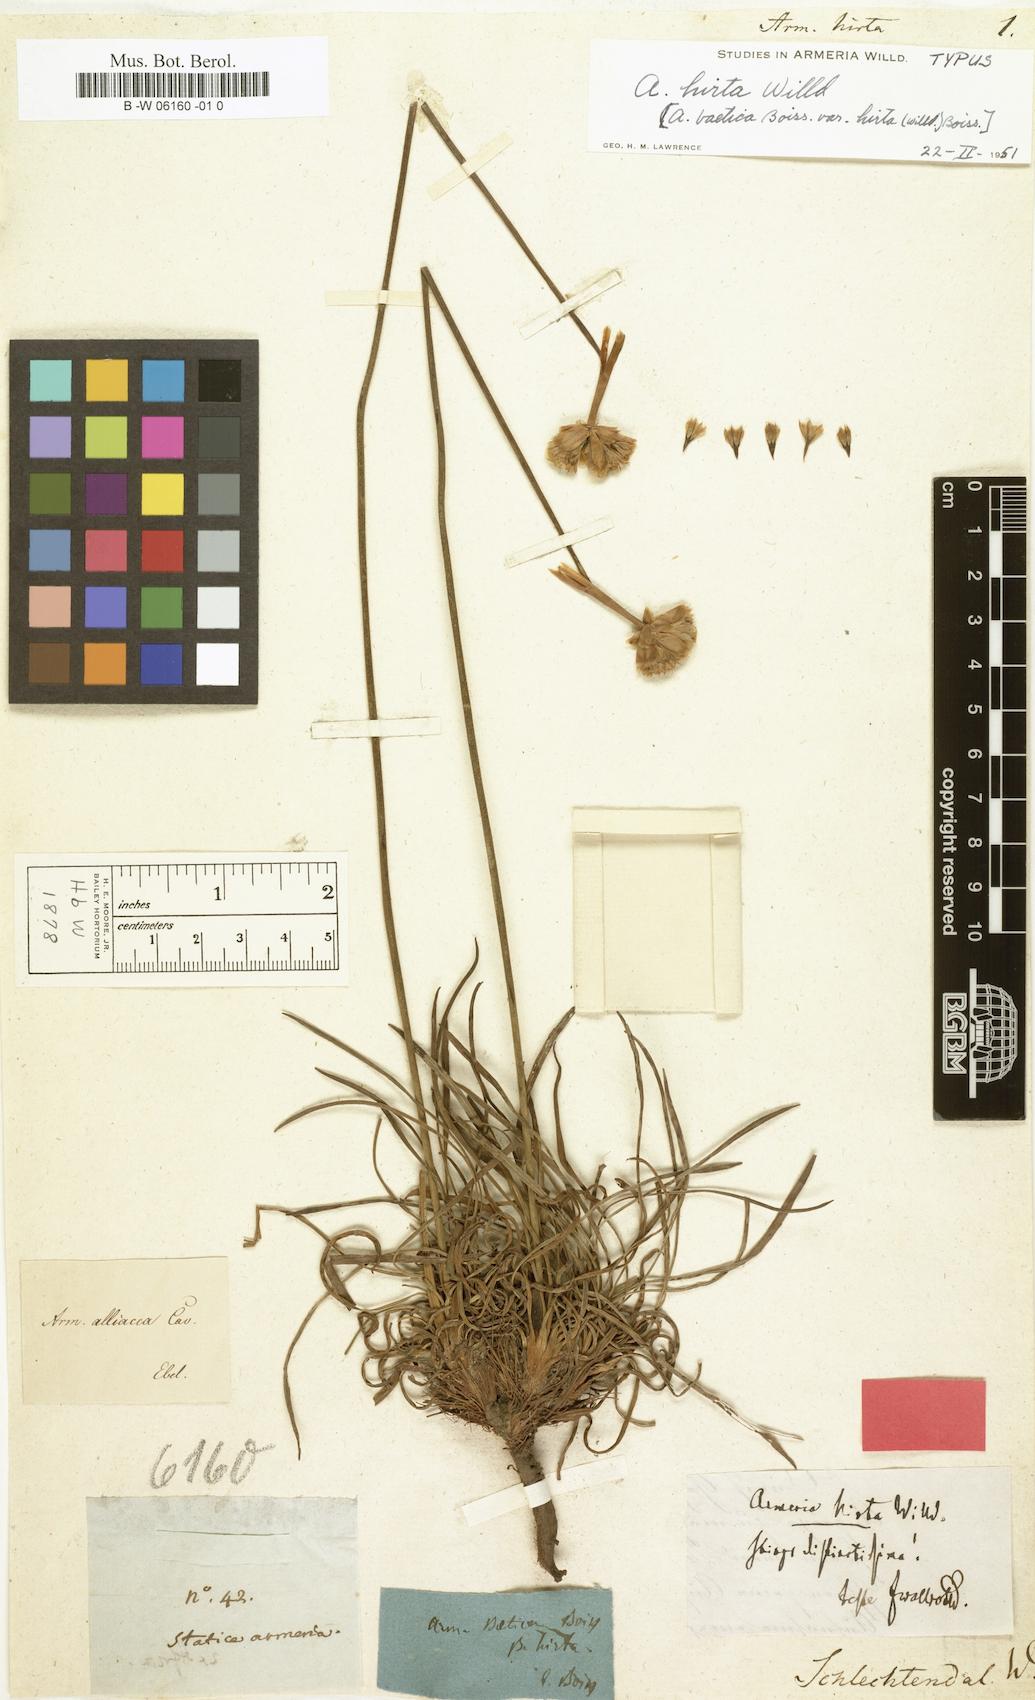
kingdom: Plantae
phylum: Tracheophyta
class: Magnoliopsida
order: Caryophyllales
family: Plumbaginaceae
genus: Armeria
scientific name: Armeria hirta
